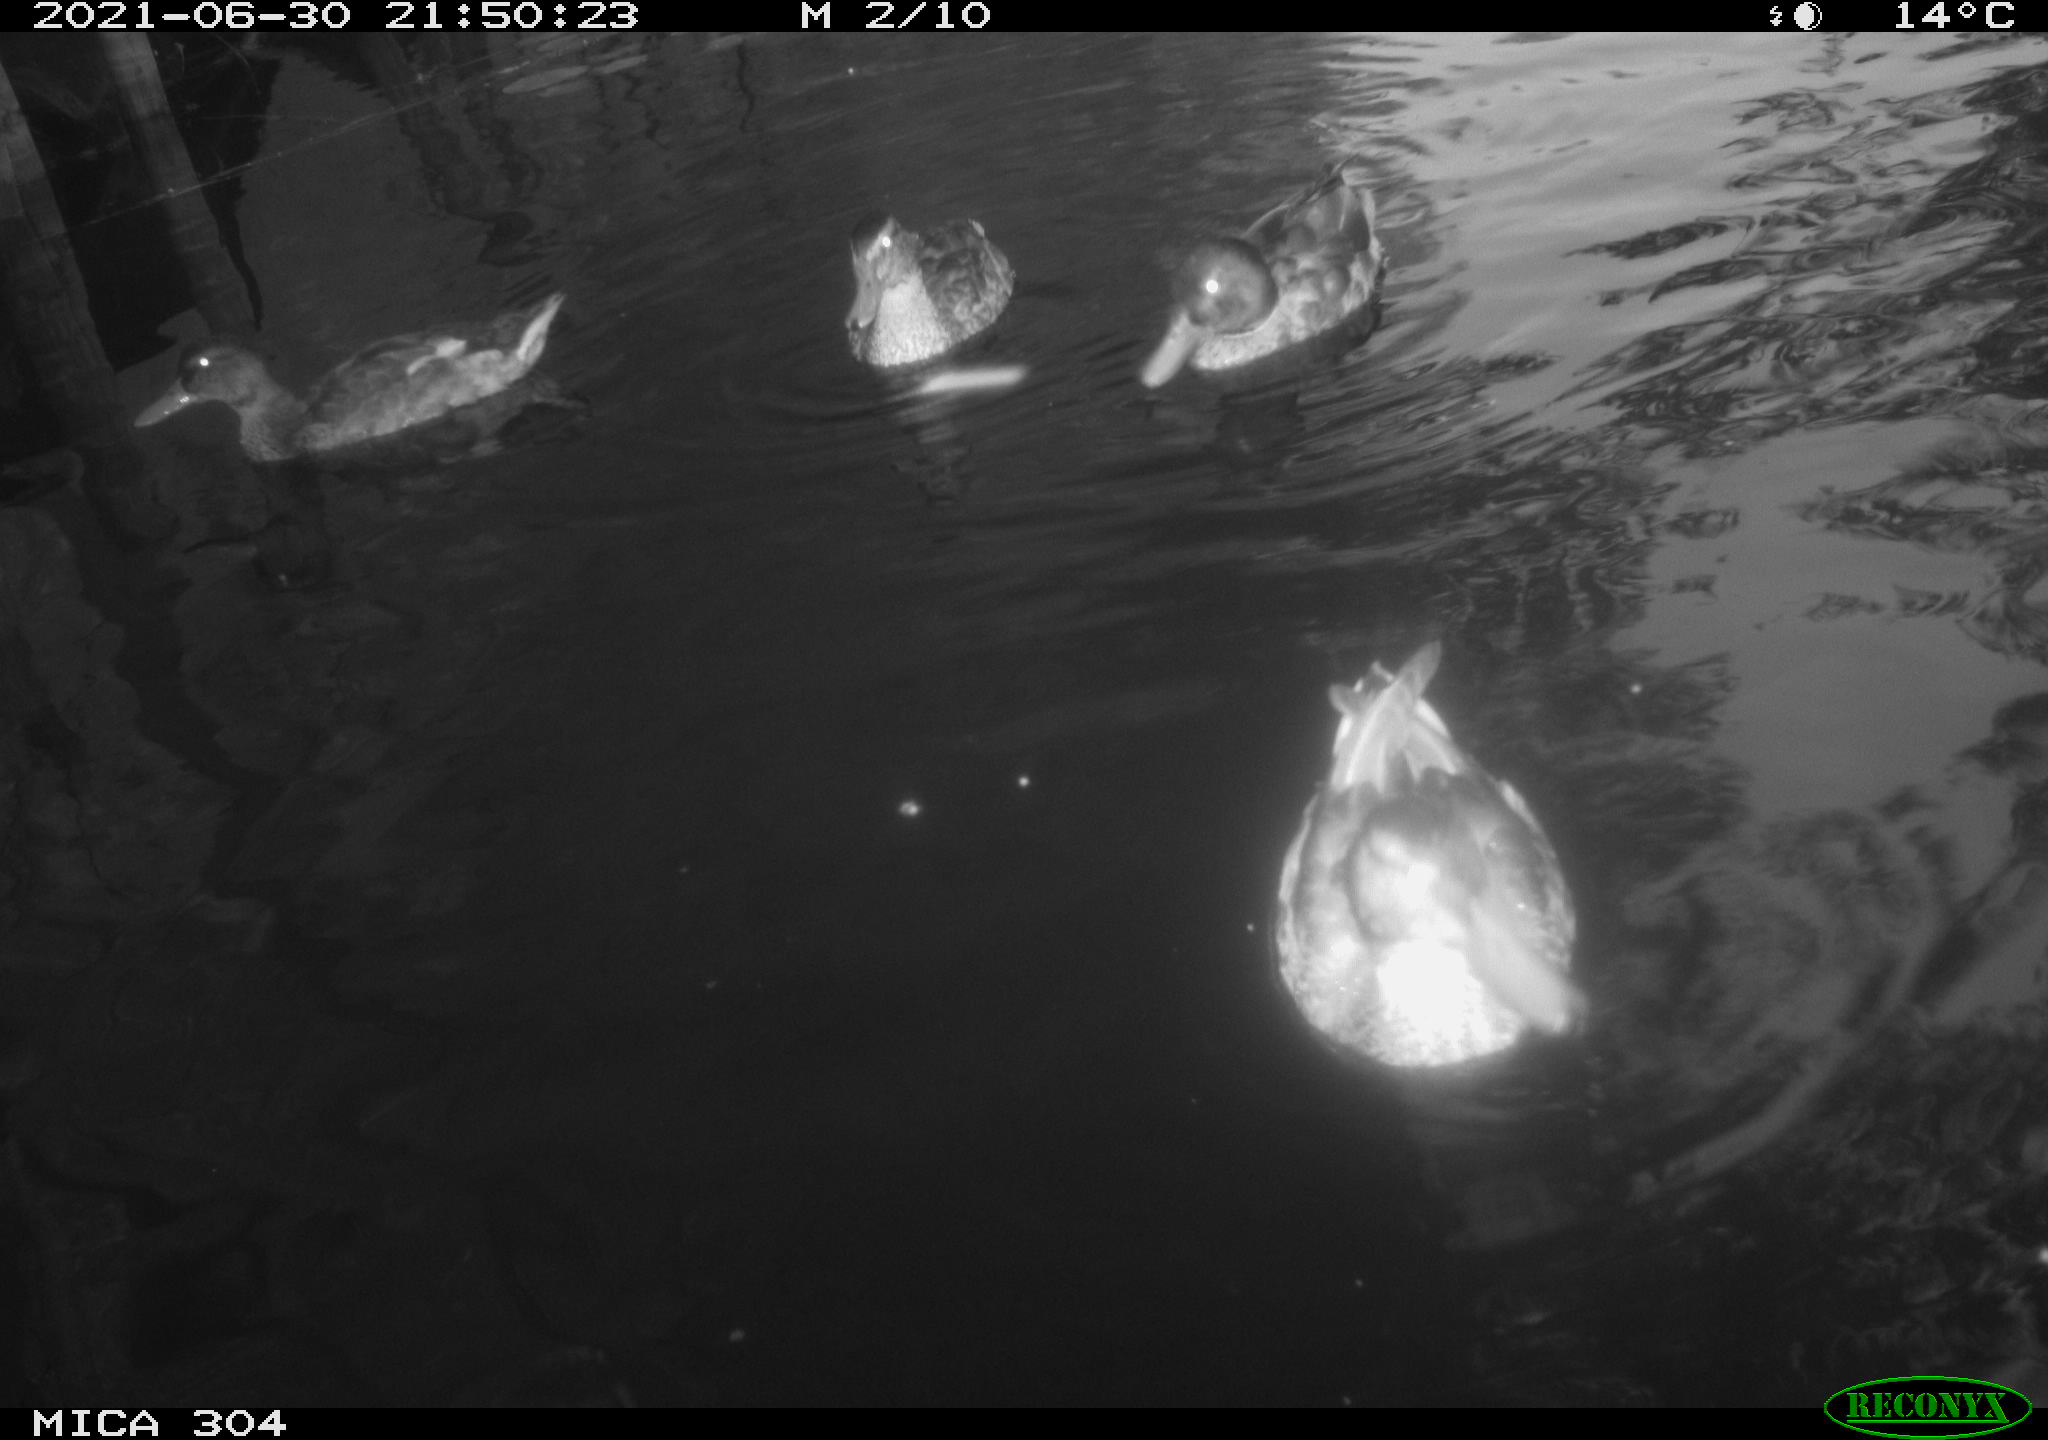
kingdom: Animalia
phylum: Chordata
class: Aves
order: Anseriformes
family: Anatidae
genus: Mareca
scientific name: Mareca strepera
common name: Gadwall
